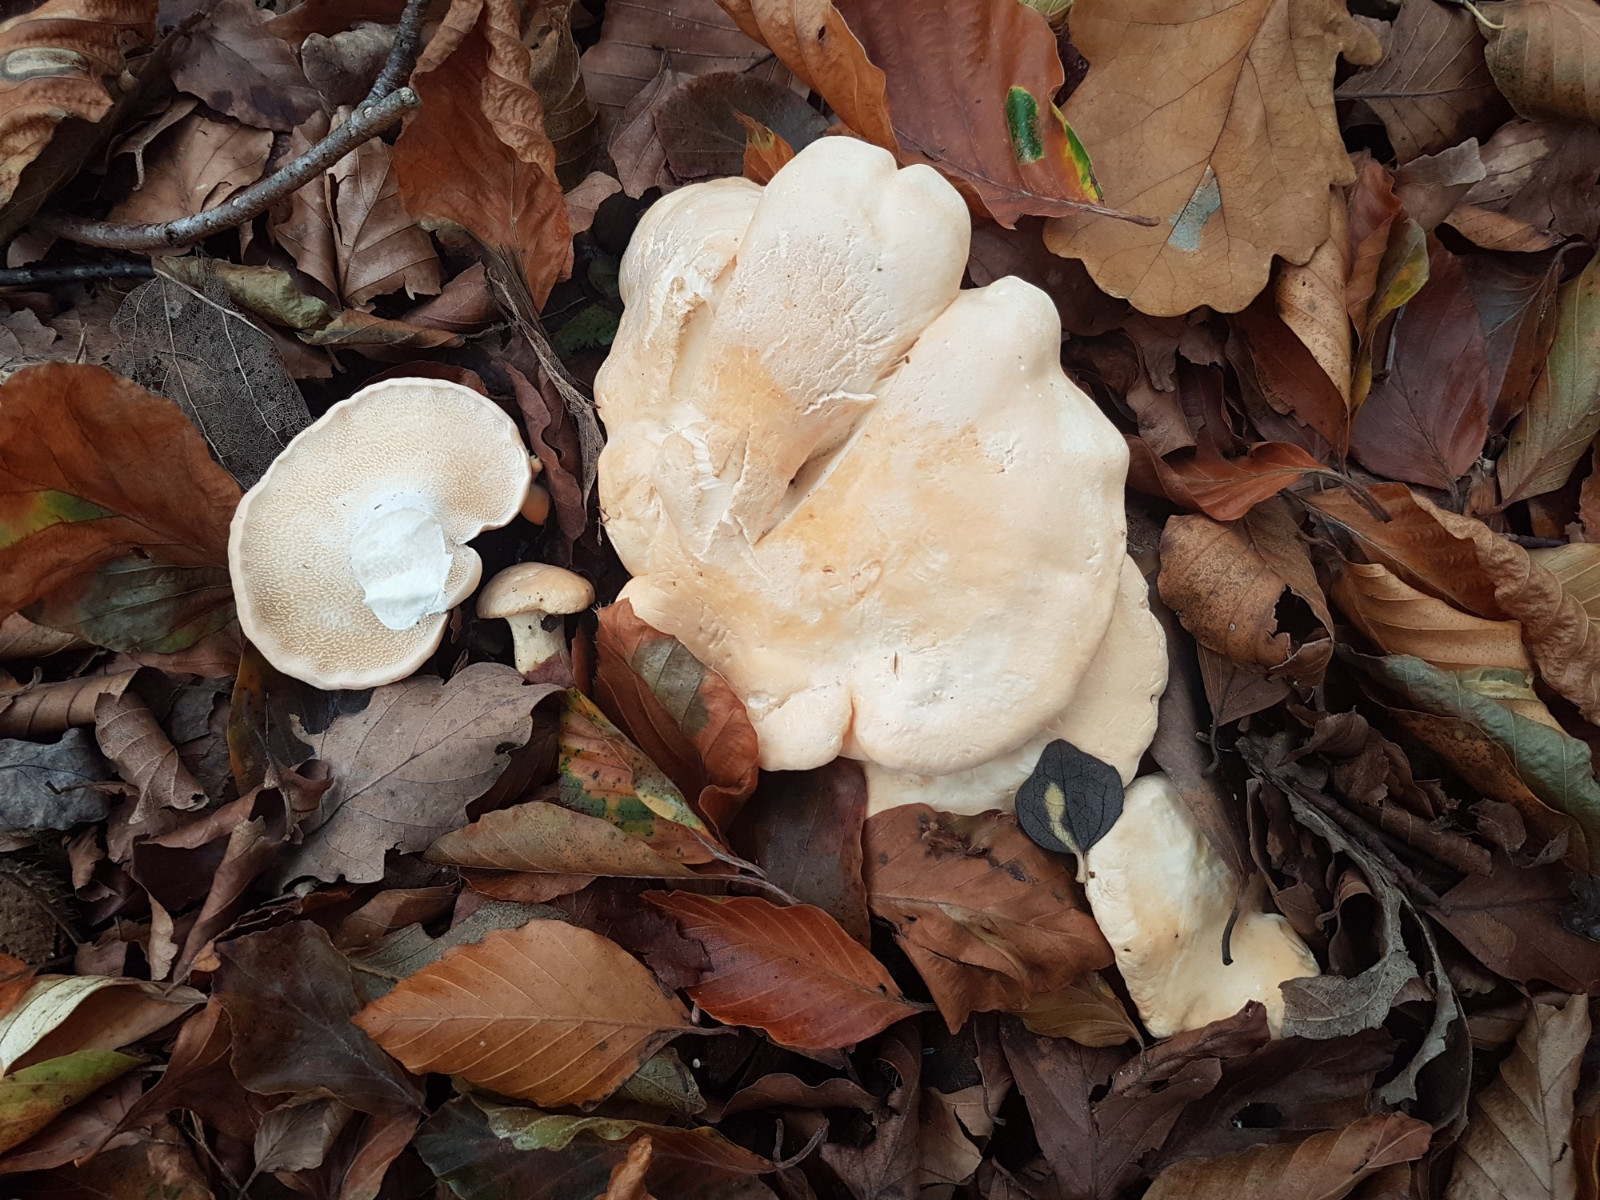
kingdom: Fungi
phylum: Basidiomycota
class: Agaricomycetes
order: Cantharellales
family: Hydnaceae
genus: Hydnum
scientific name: Hydnum repandum
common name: almindelig pigsvamp
